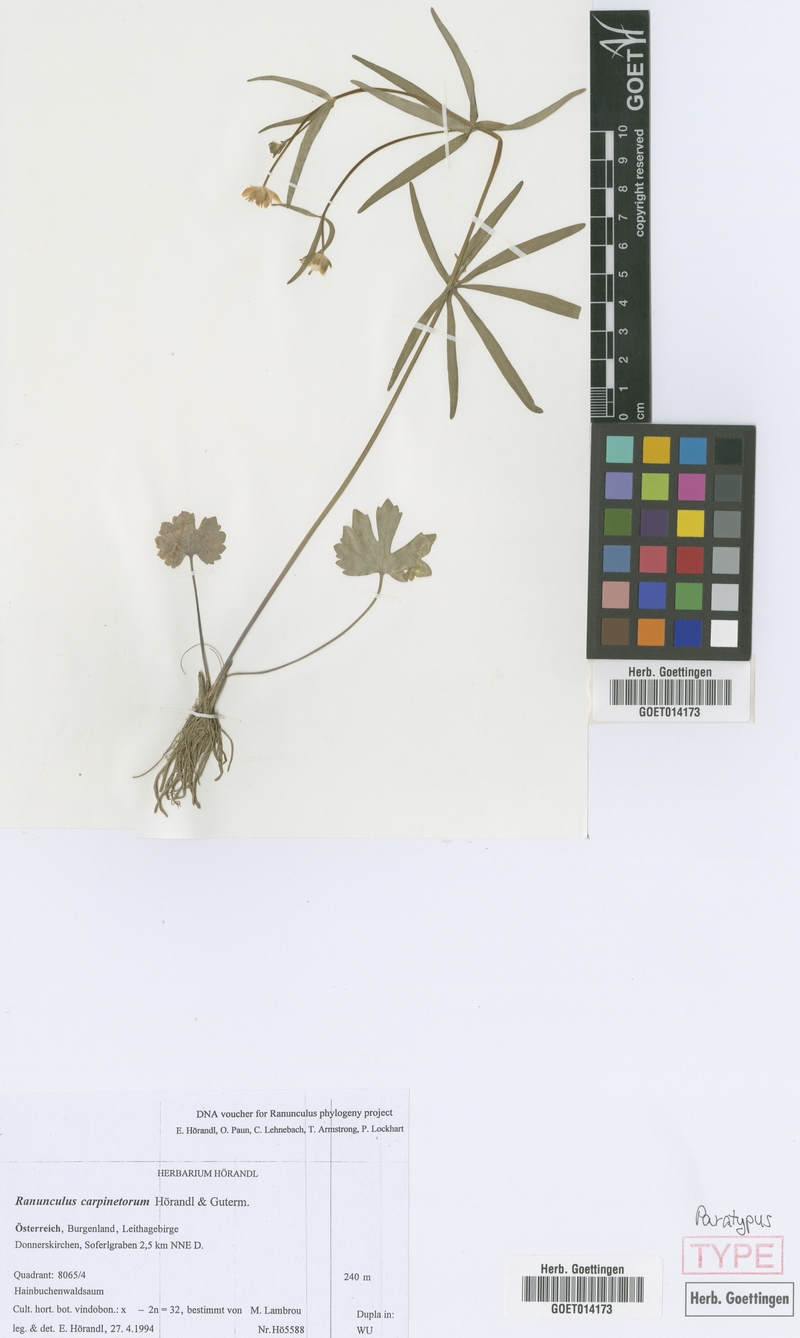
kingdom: Plantae
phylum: Tracheophyta
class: Magnoliopsida
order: Ranunculales
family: Ranunculaceae
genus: Ranunculus
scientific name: Ranunculus carpinetorum
